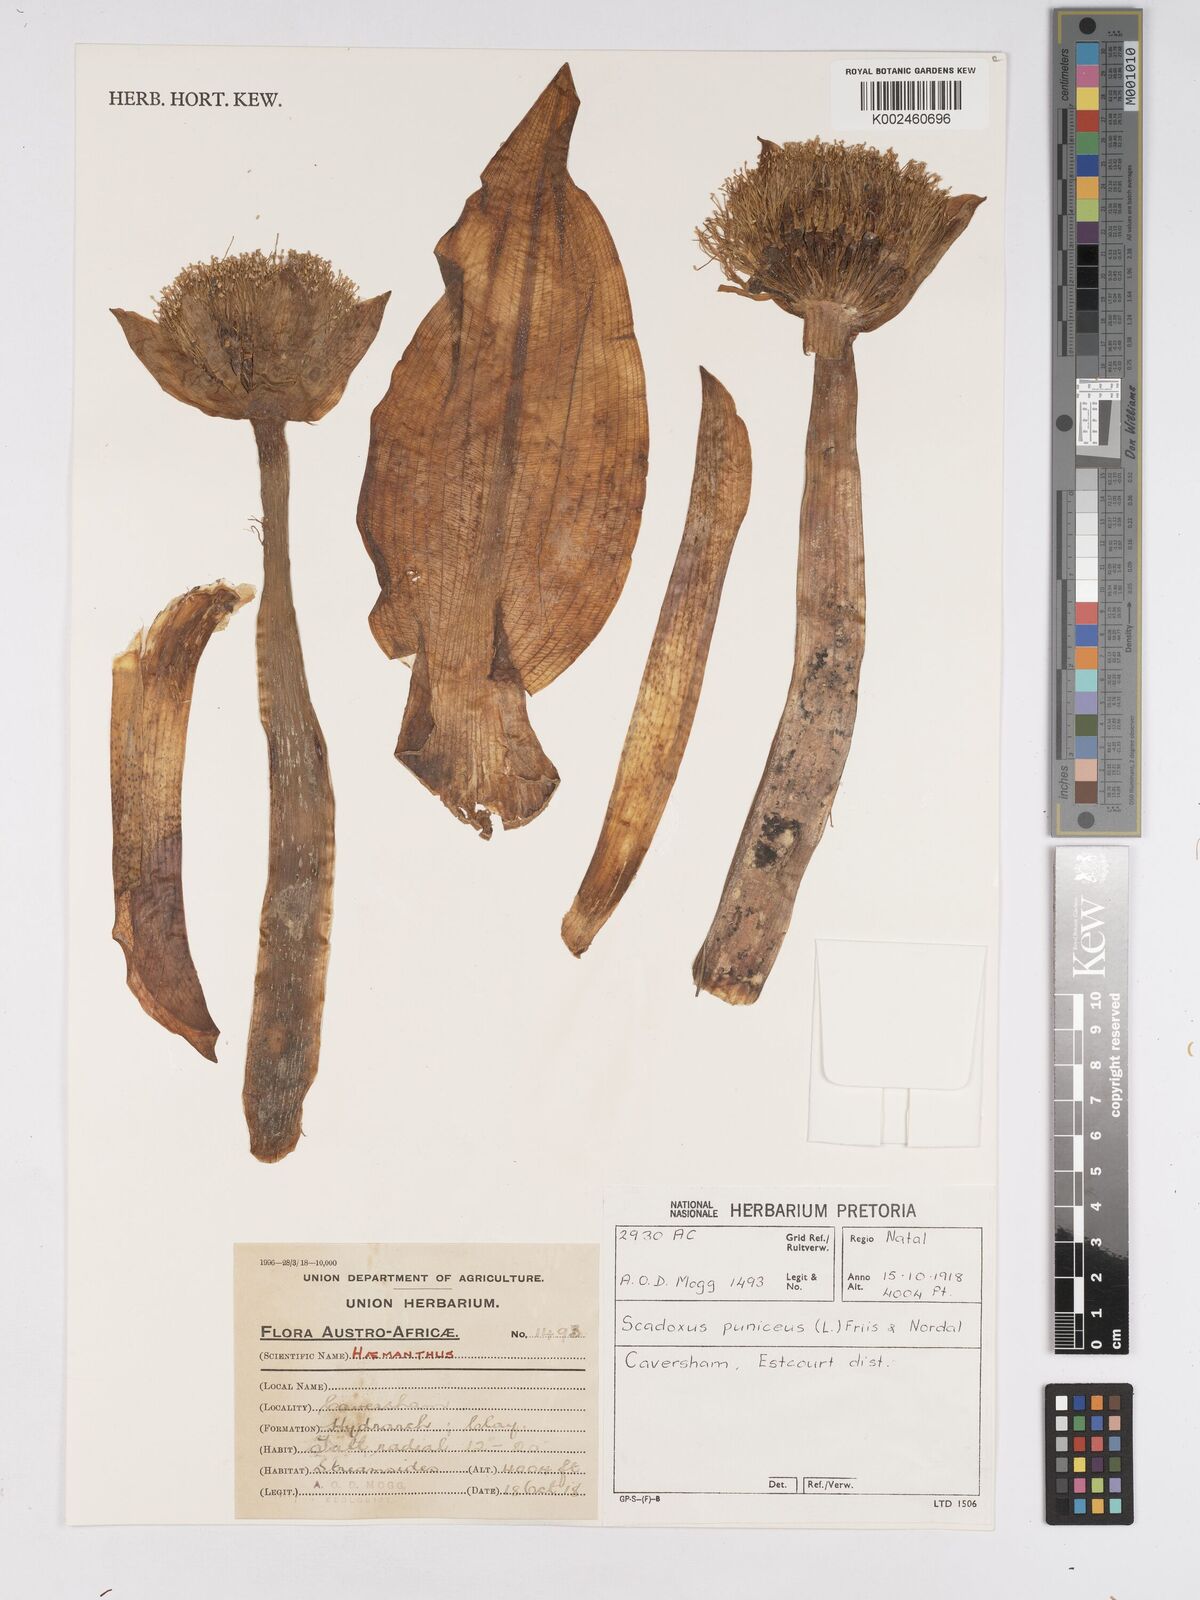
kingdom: Plantae
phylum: Tracheophyta
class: Liliopsida
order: Asparagales
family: Amaryllidaceae
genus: Scadoxus
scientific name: Scadoxus puniceus
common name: Royal-paintbrush
